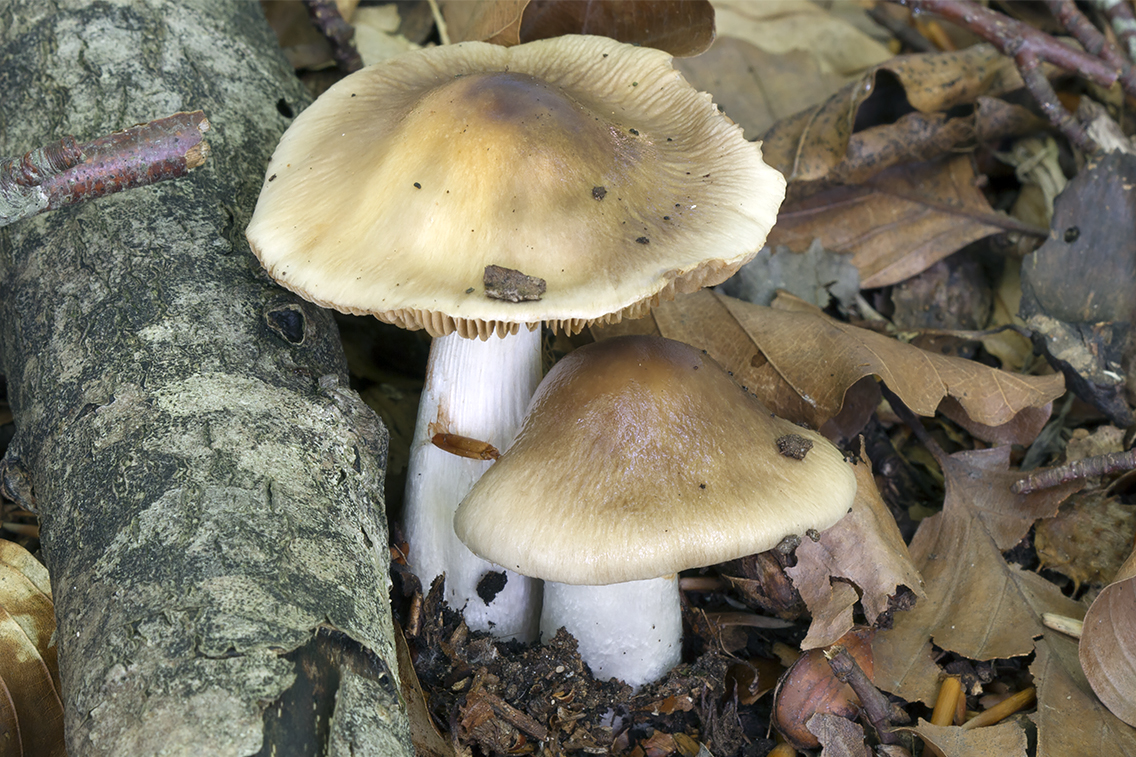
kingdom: Fungi
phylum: Basidiomycota
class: Agaricomycetes
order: Agaricales
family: Cortinariaceae
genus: Cortinarius
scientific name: Cortinarius livido-ochraceus
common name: halvhøj slørhat
